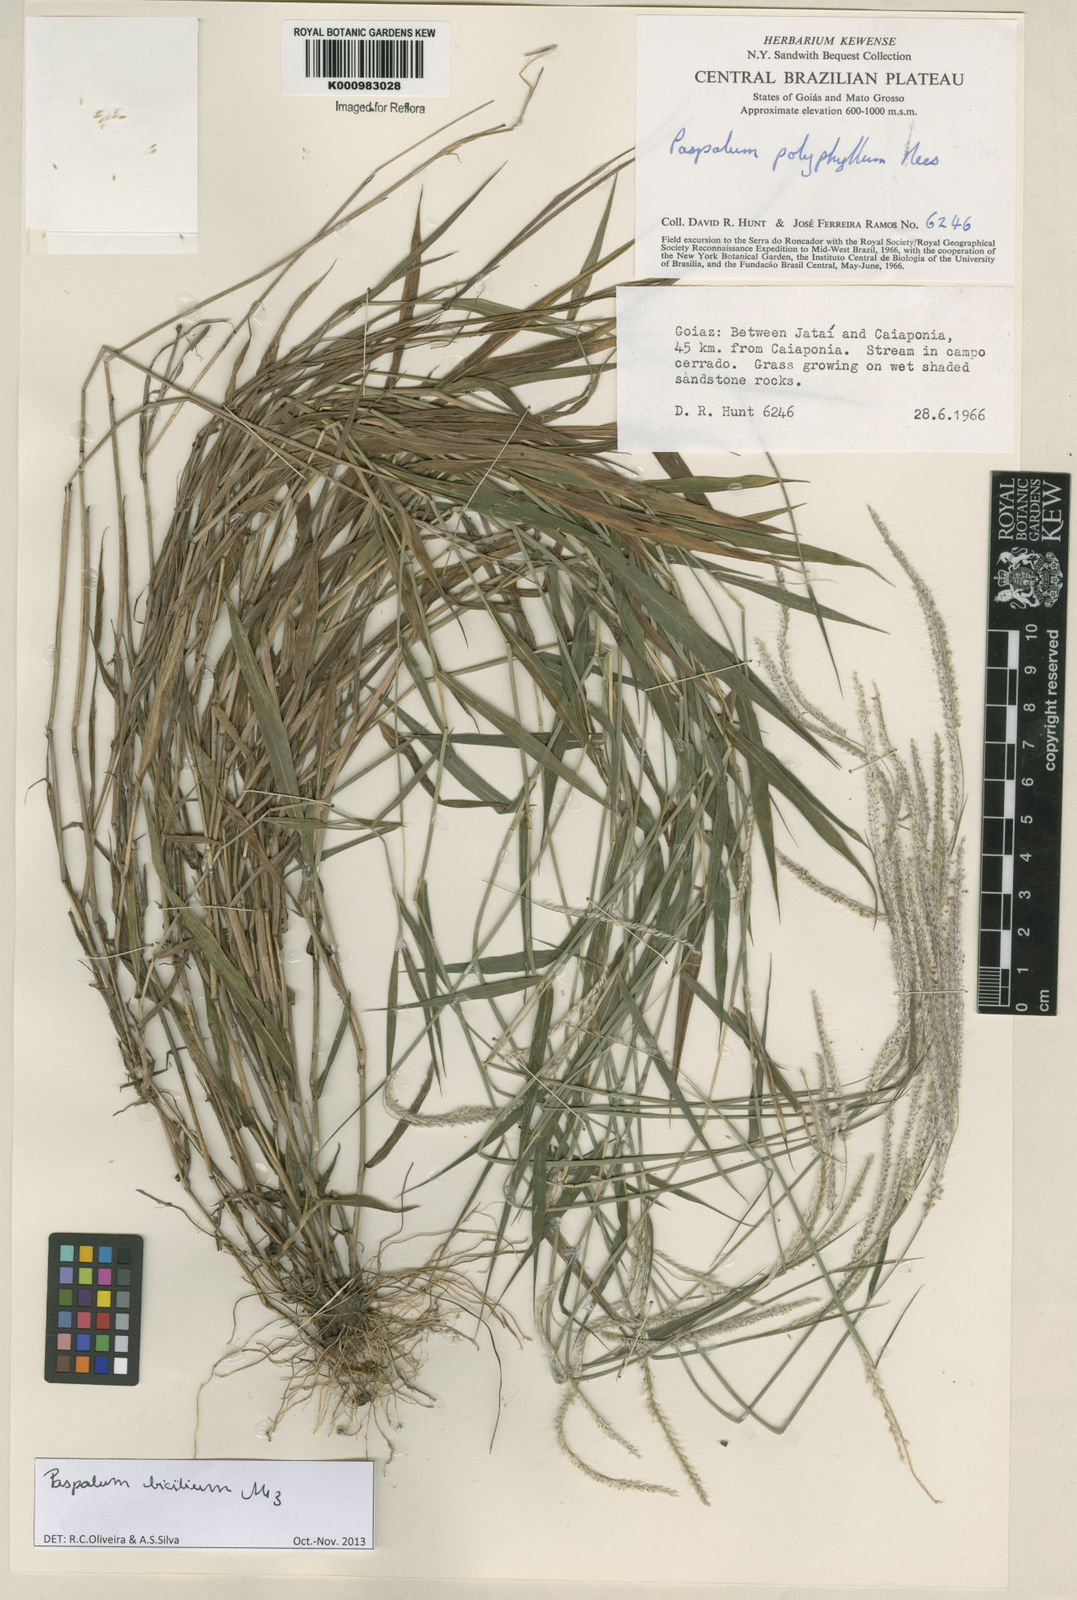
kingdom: Plantae
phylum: Tracheophyta
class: Liliopsida
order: Poales
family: Poaceae
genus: Paspalum
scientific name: Paspalum polyphyllum
